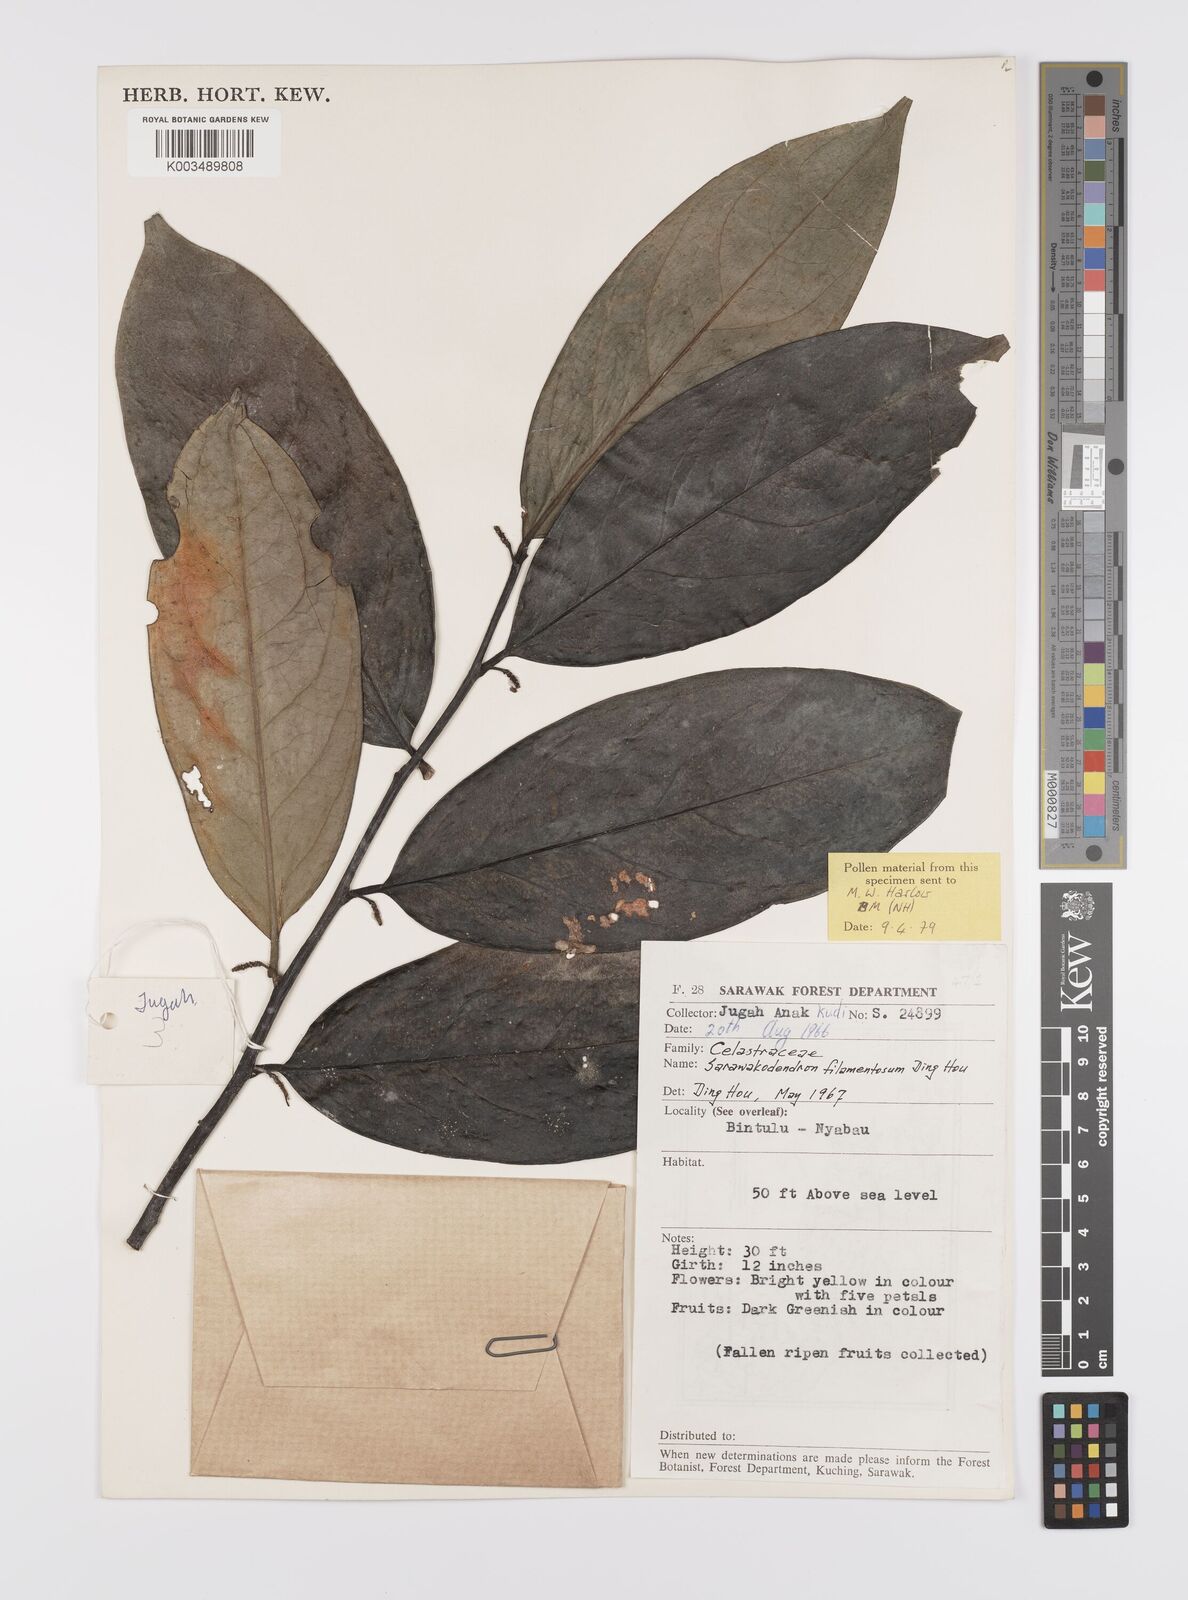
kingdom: Plantae
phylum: Tracheophyta
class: Magnoliopsida
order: Celastrales
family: Celastraceae
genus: Sarawakodendron
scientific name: Sarawakodendron filamentosum
